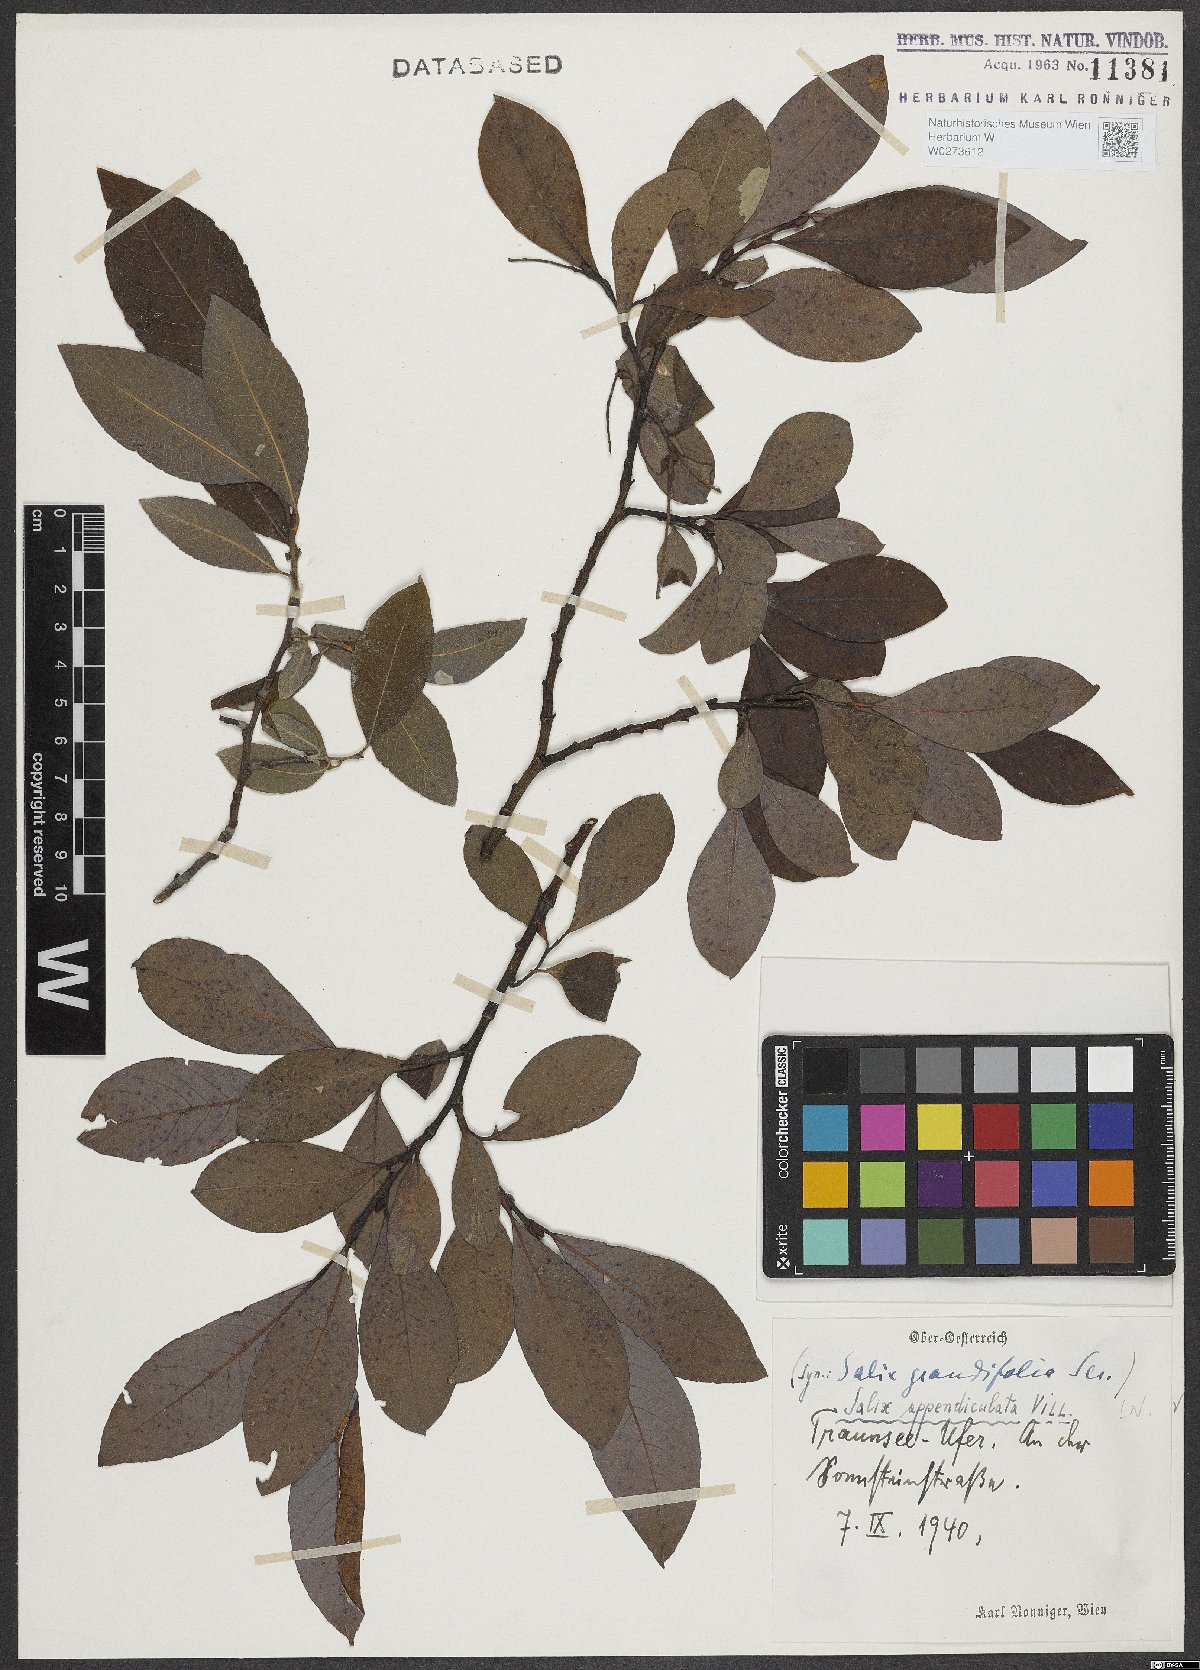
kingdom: Plantae
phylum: Tracheophyta
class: Magnoliopsida
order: Malpighiales
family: Salicaceae
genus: Salix
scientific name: Salix appendiculata
